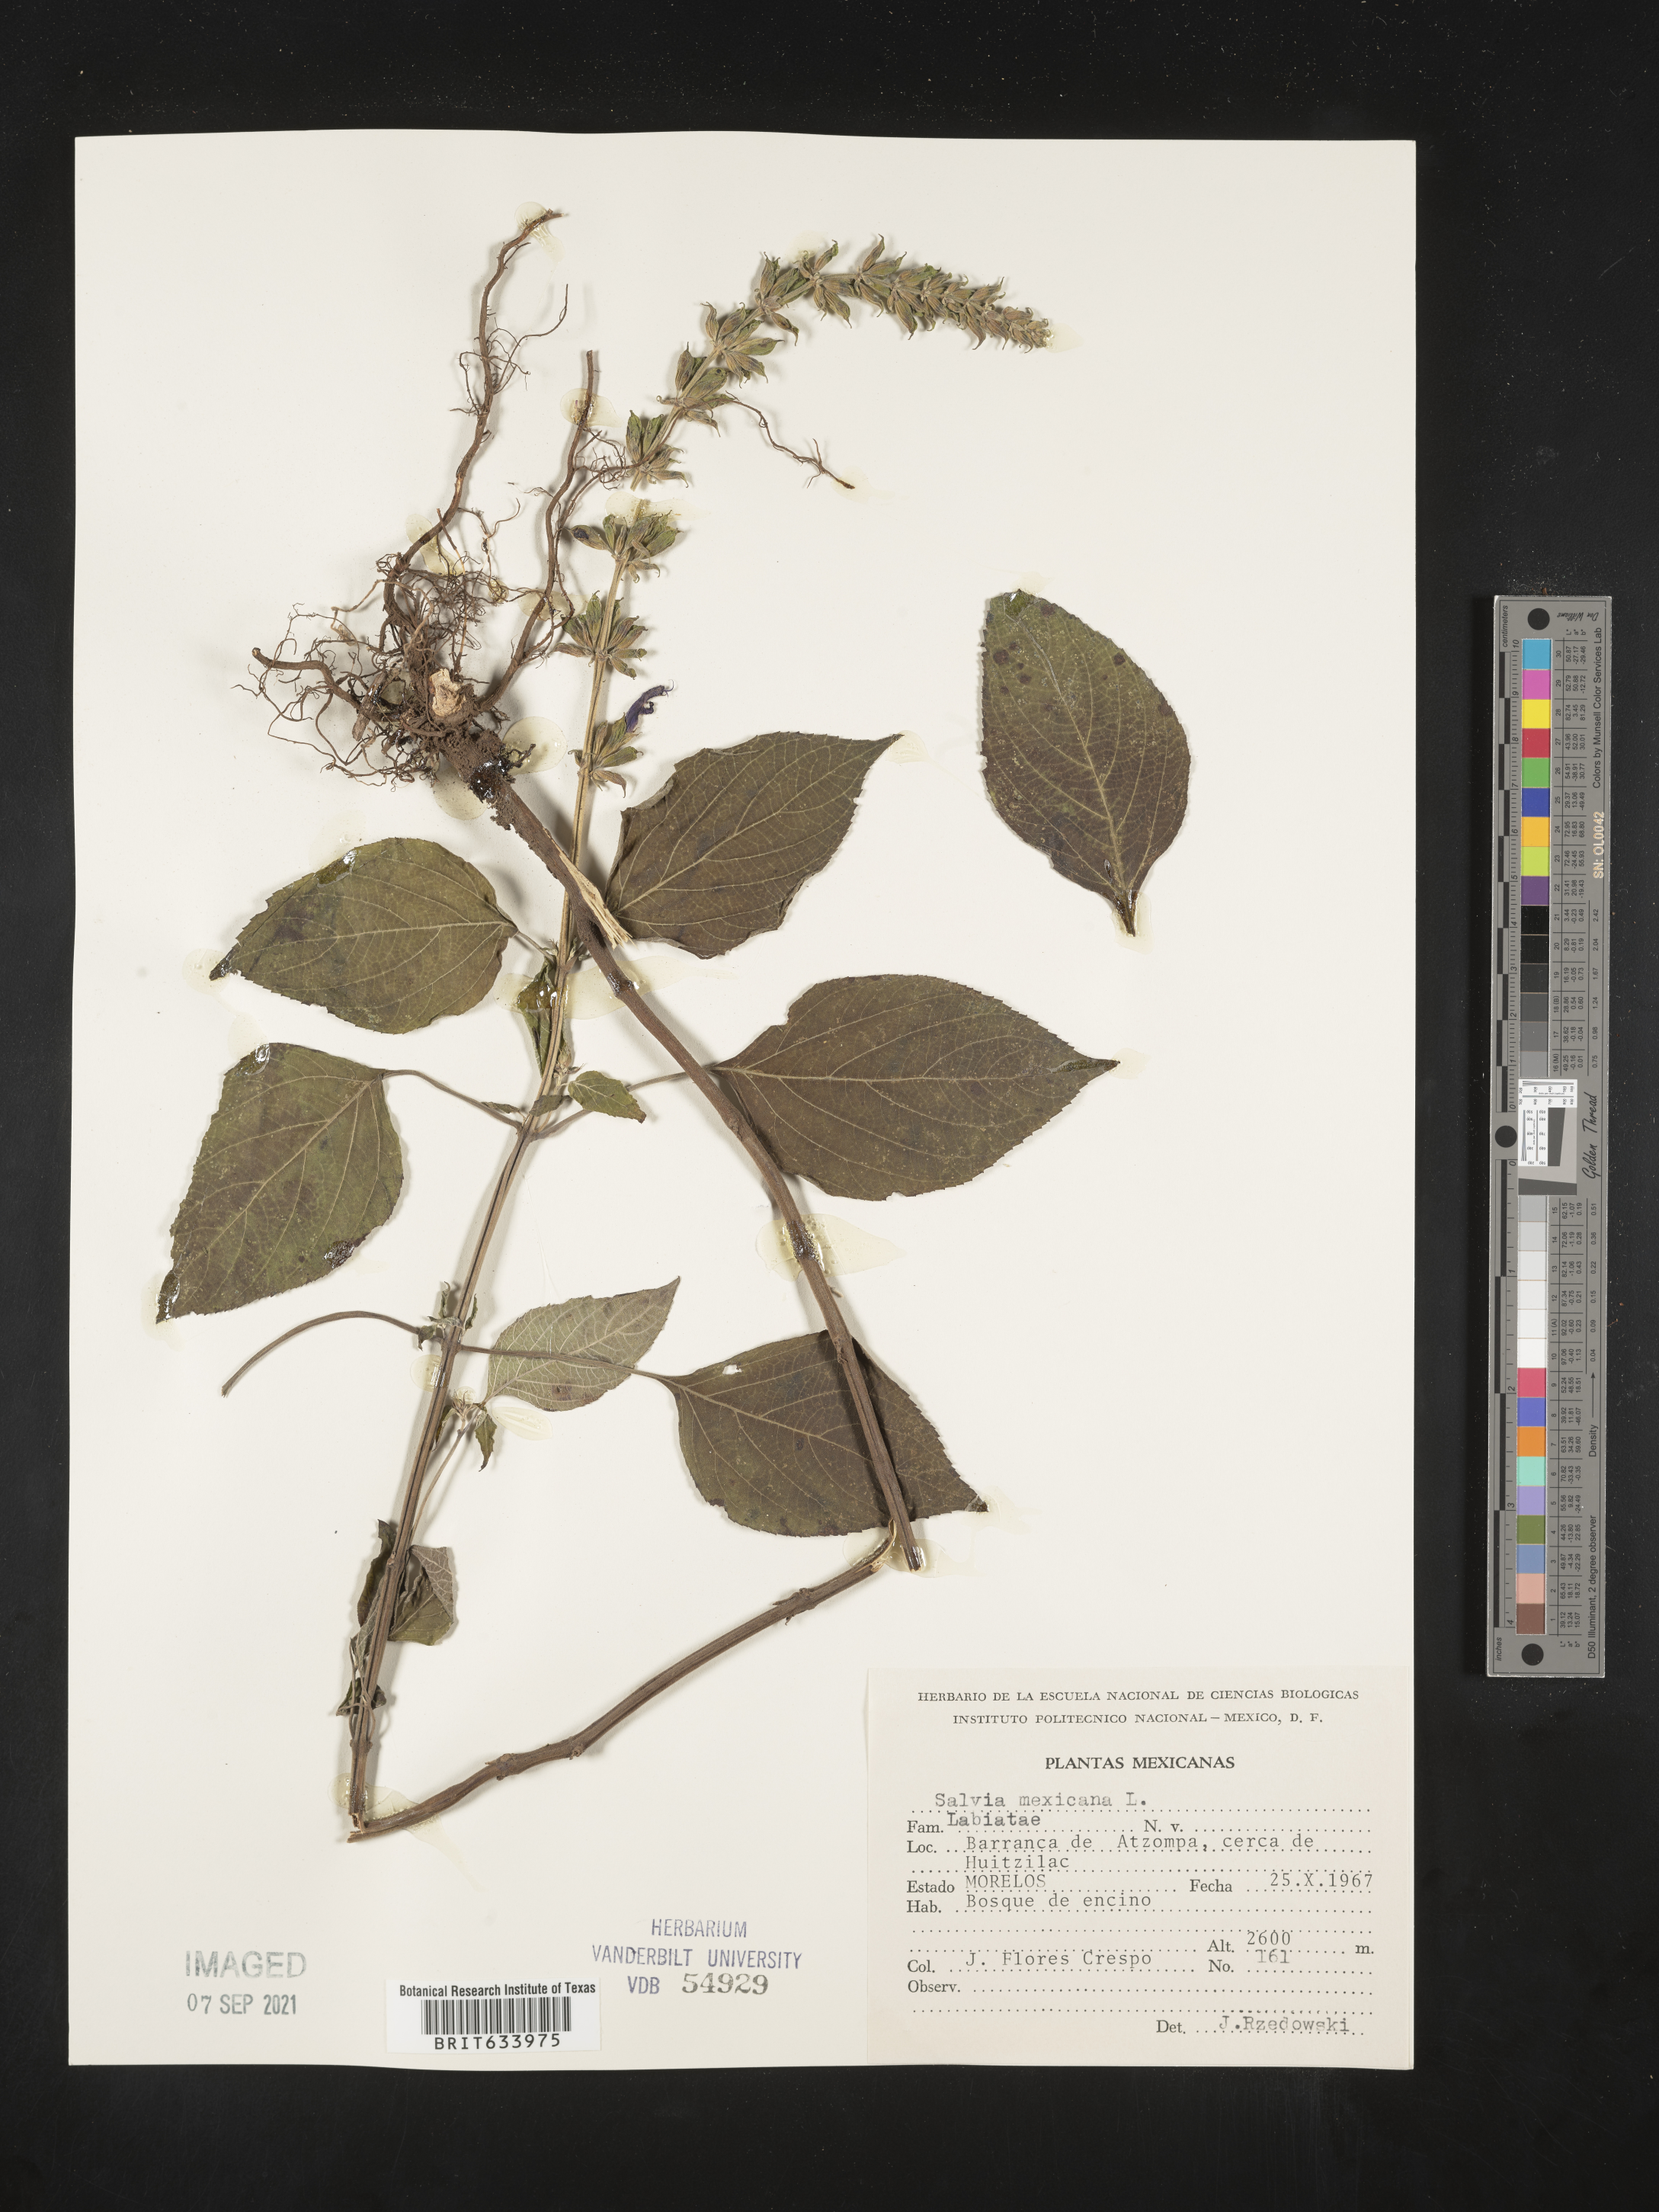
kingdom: Plantae
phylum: Tracheophyta
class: Magnoliopsida
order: Lamiales
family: Lamiaceae
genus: Salvia
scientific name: Salvia
